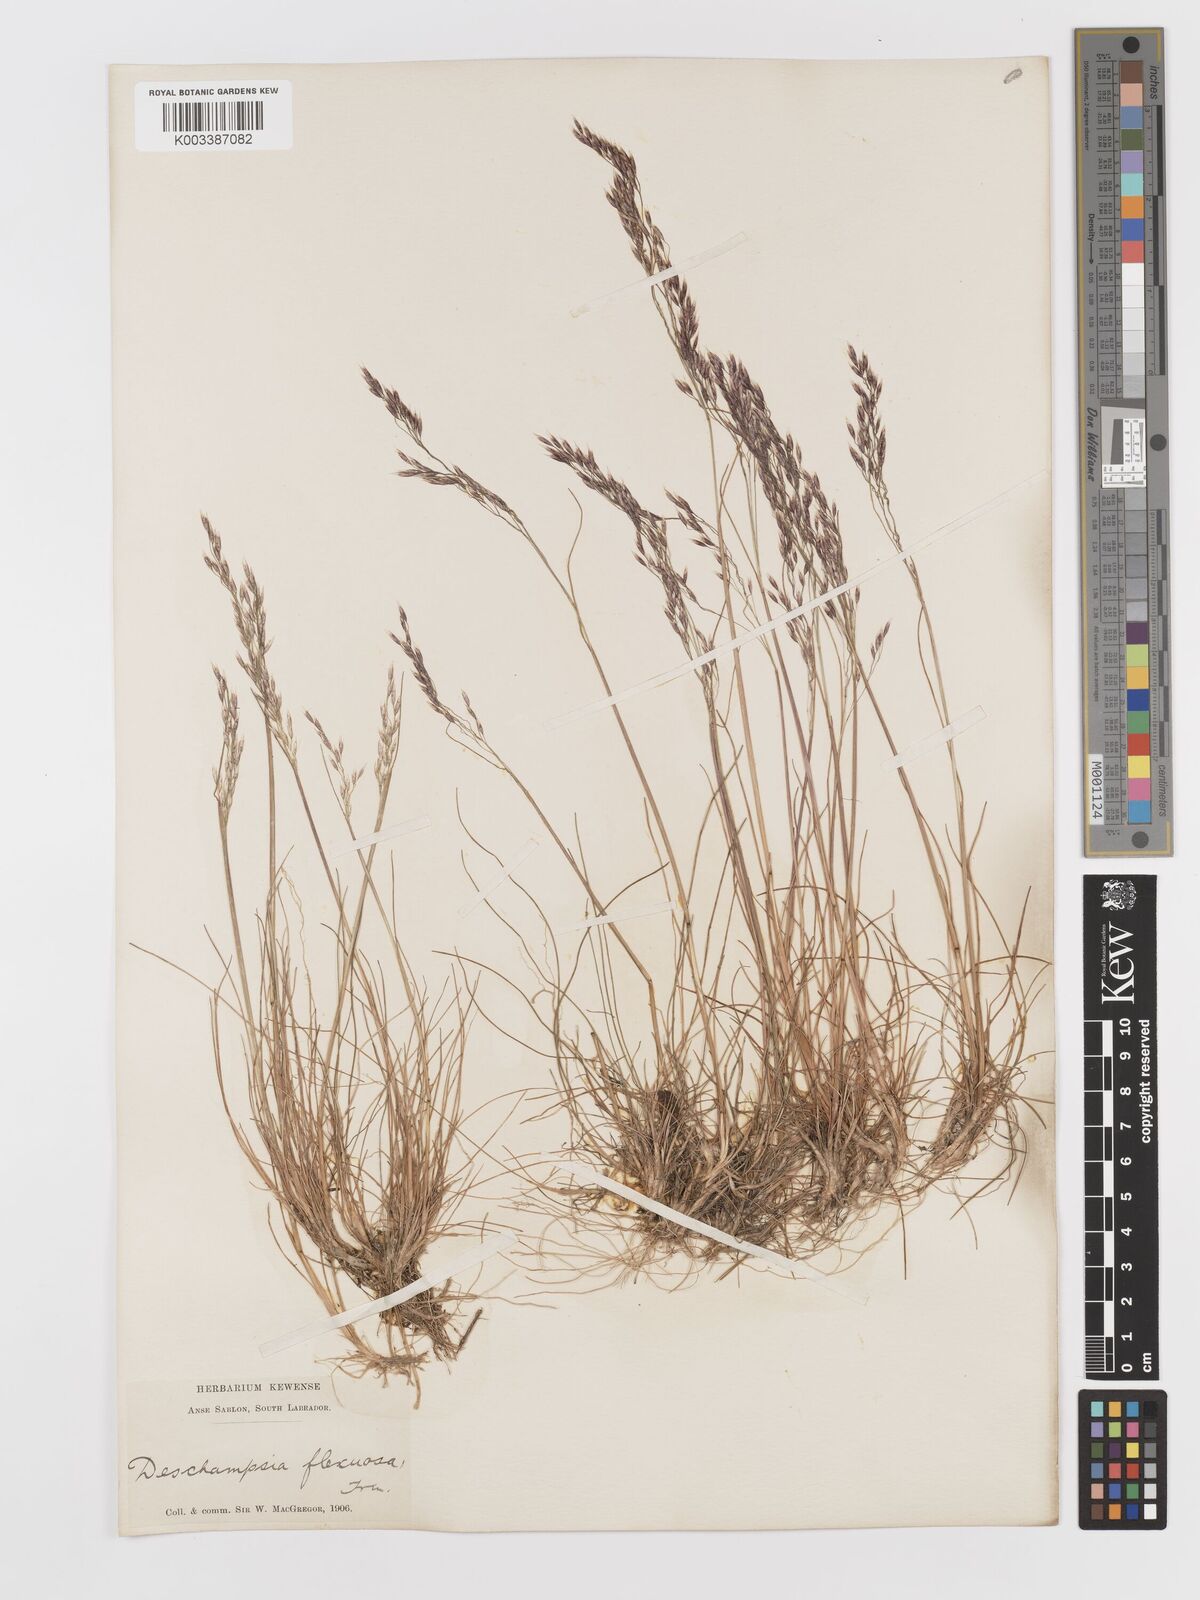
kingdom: Plantae
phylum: Tracheophyta
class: Liliopsida
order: Poales
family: Poaceae
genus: Avenella
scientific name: Avenella flexuosa
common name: Wavy hairgrass
